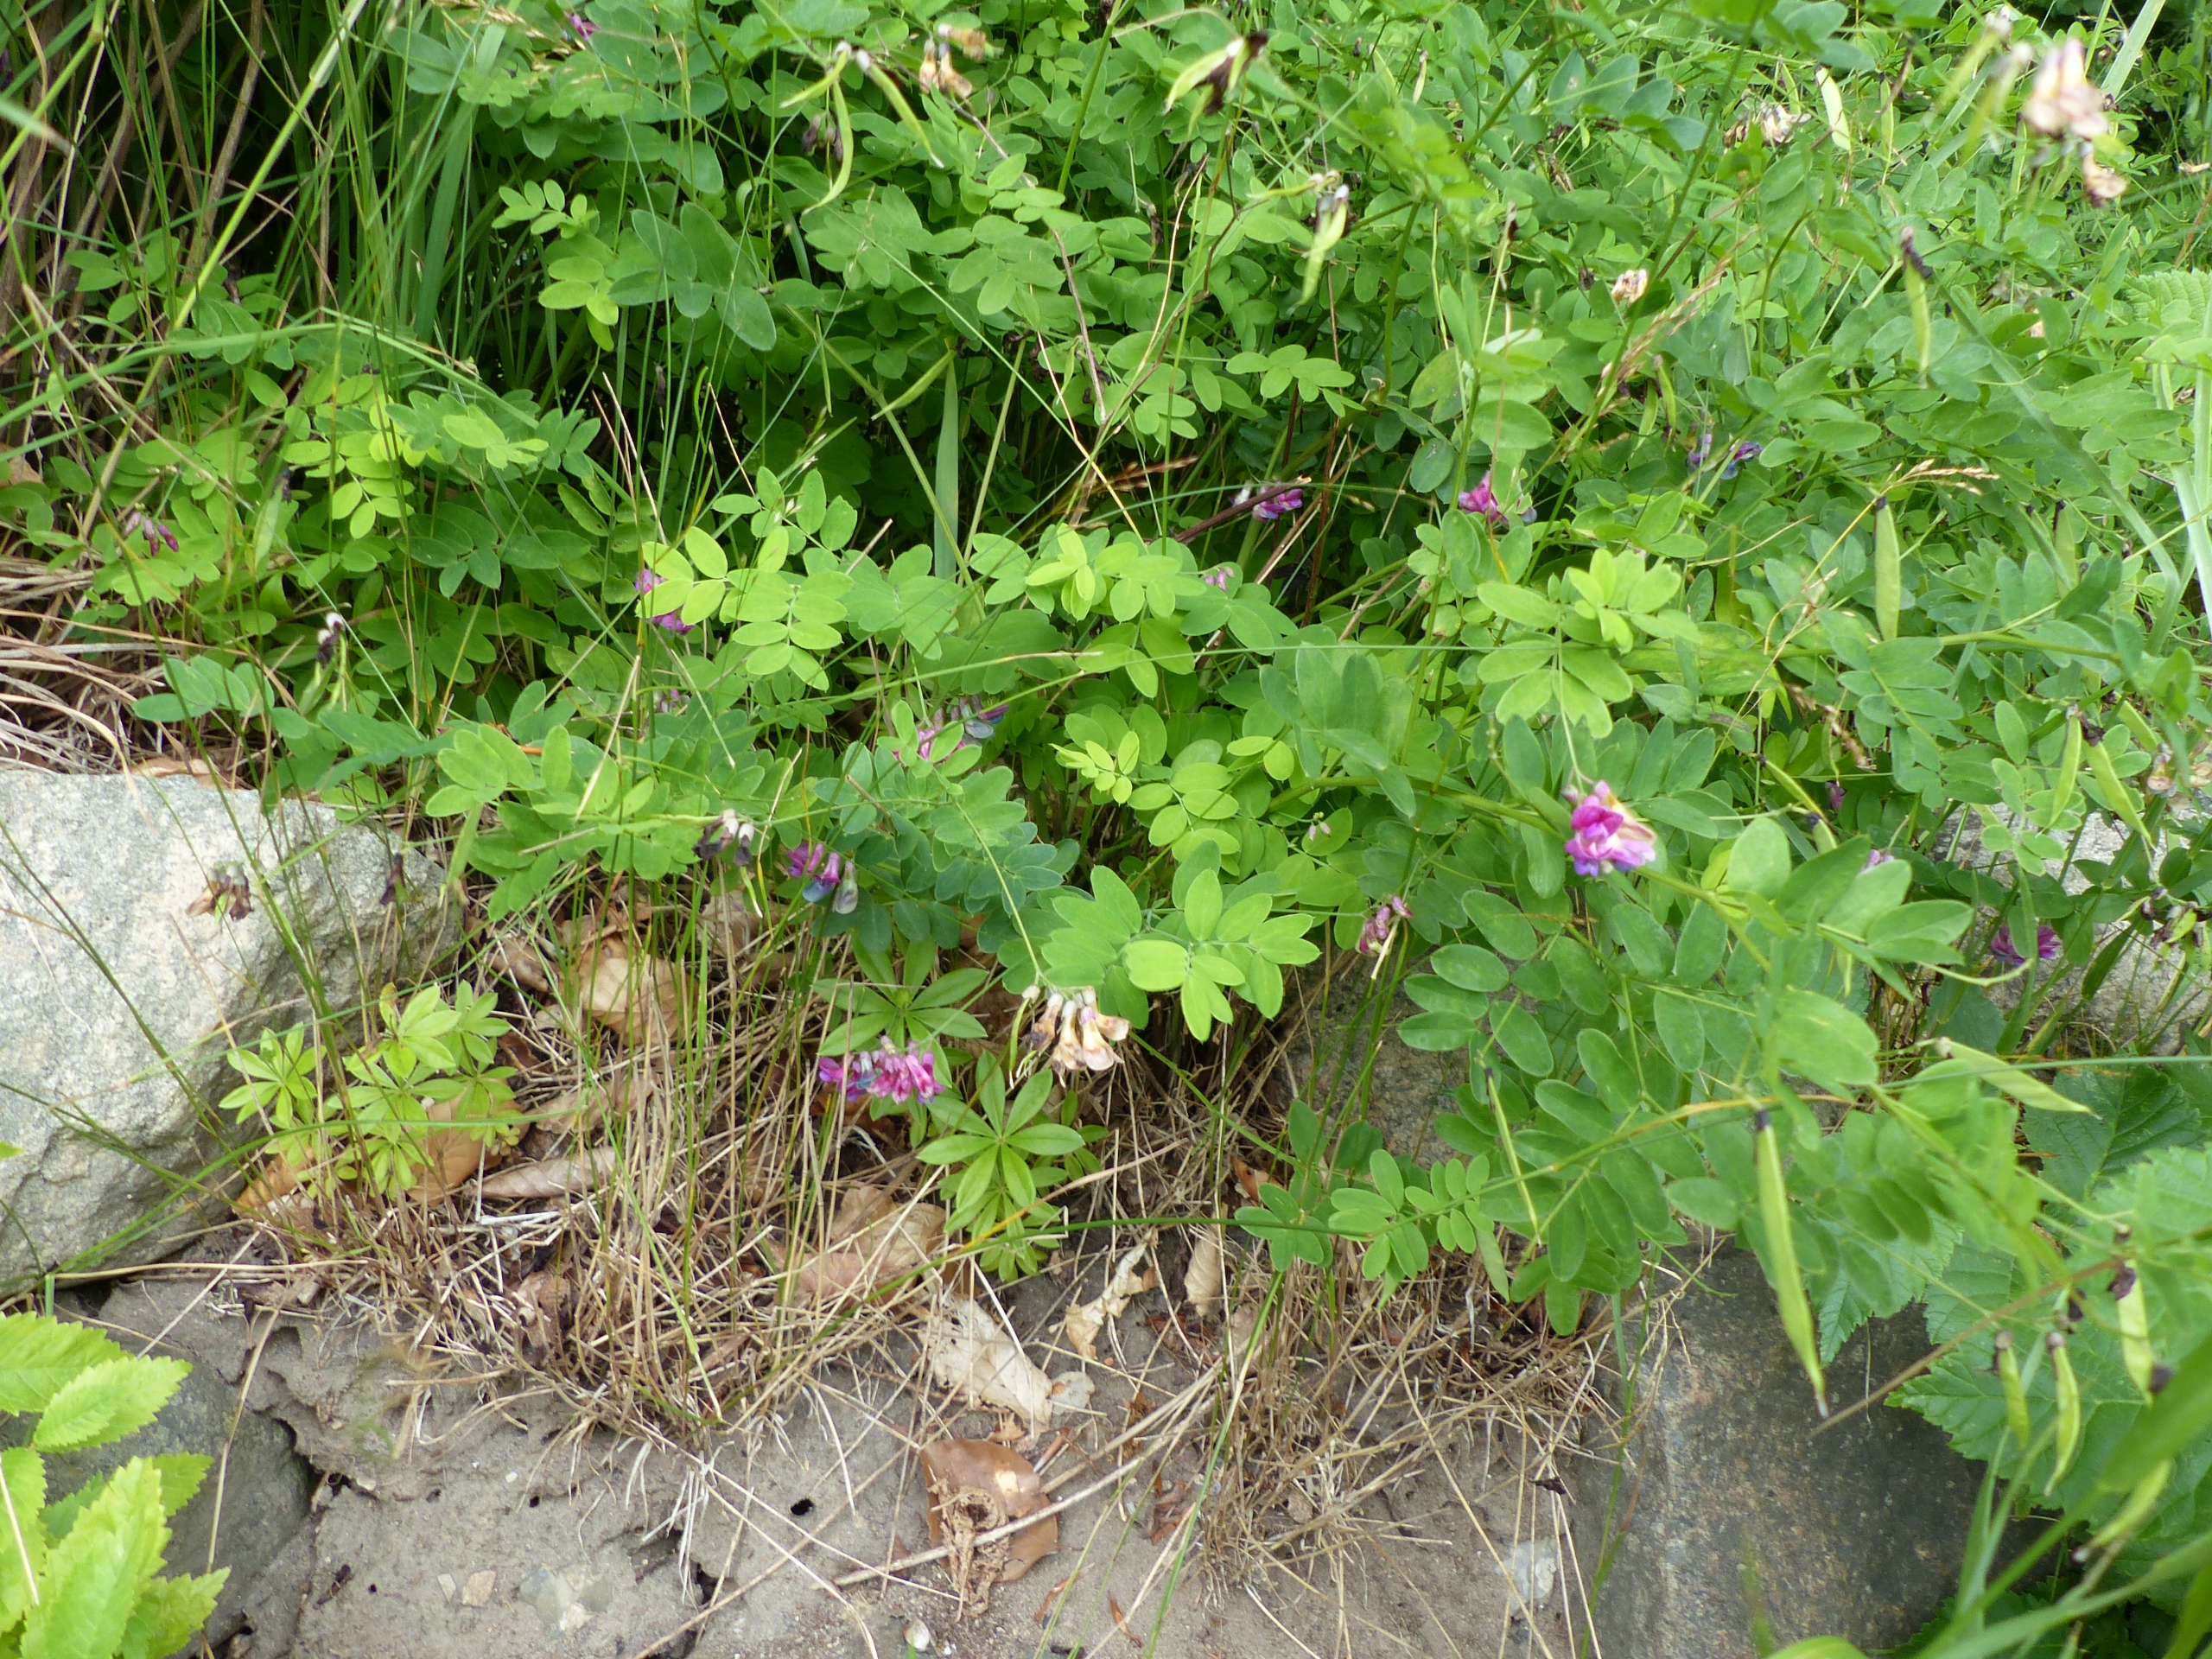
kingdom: Plantae
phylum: Tracheophyta
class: Magnoliopsida
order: Fabales
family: Fabaceae
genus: Lathyrus
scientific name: Lathyrus niger
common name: Sort fladbælg
